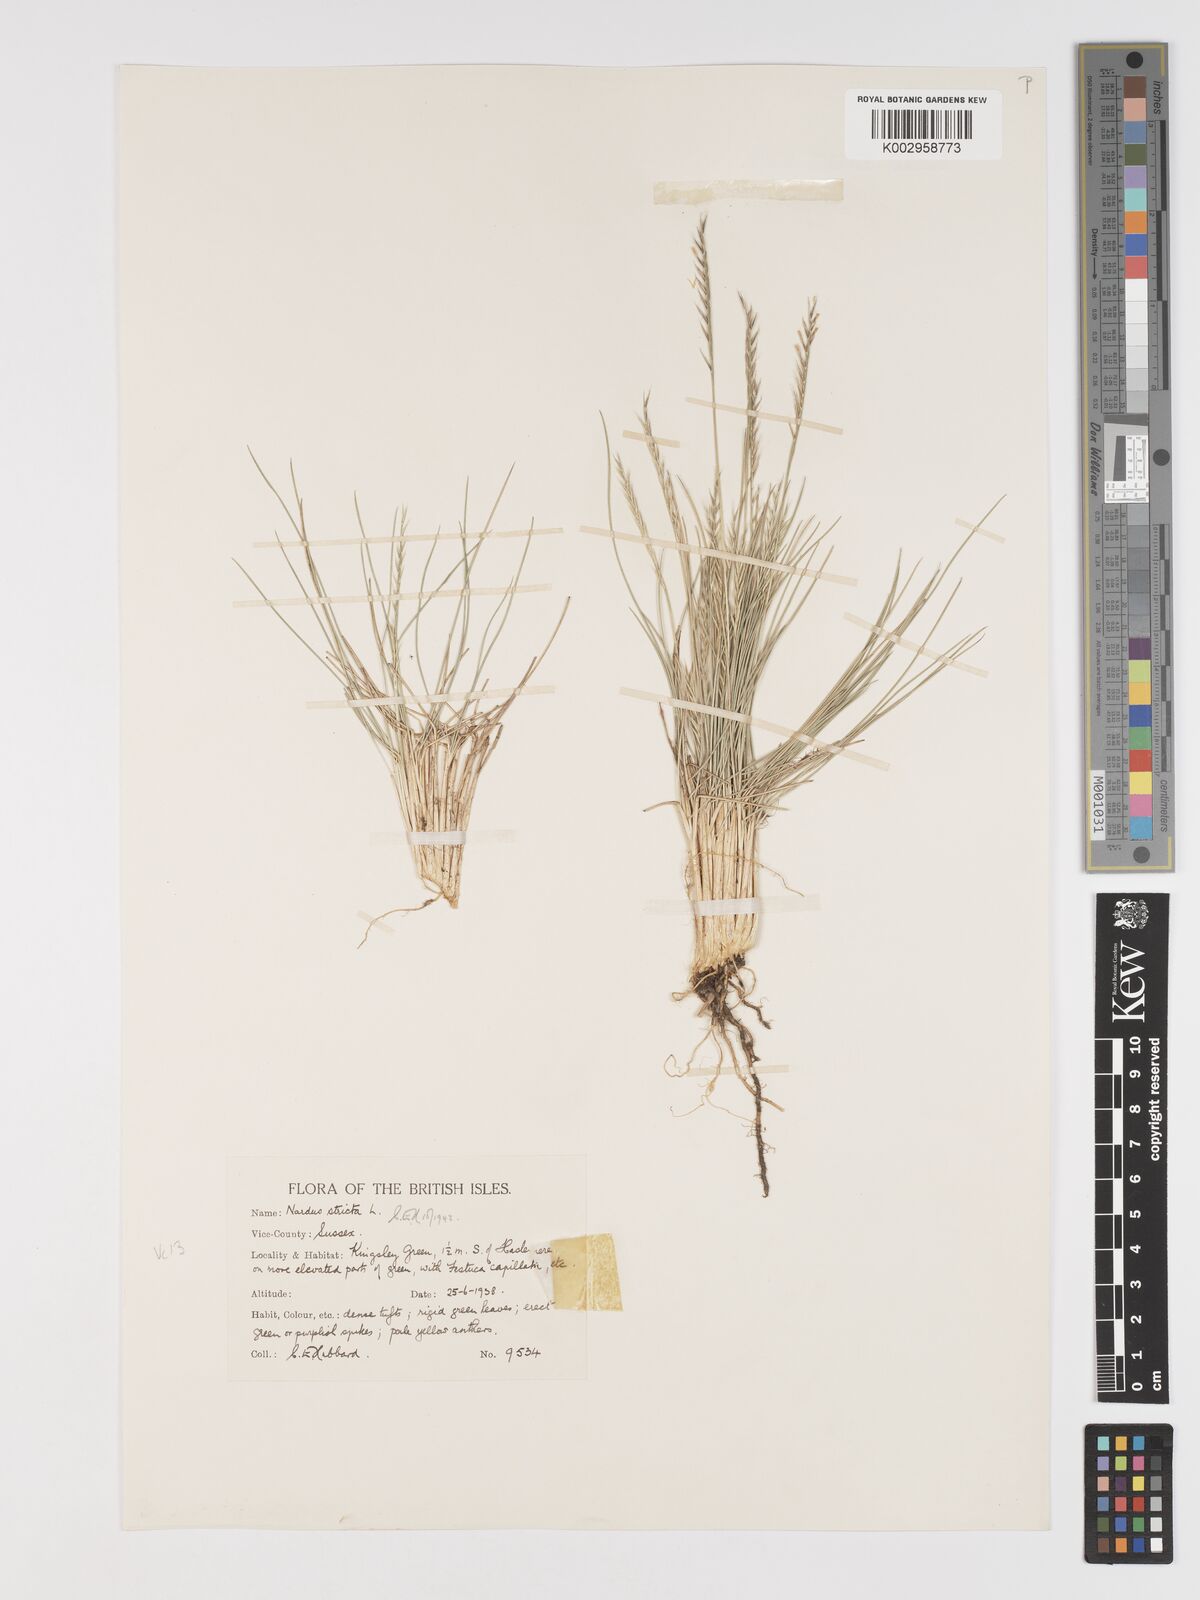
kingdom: Plantae
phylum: Tracheophyta
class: Liliopsida
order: Poales
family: Poaceae
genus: Nardus
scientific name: Nardus stricta
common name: Mat-grass
